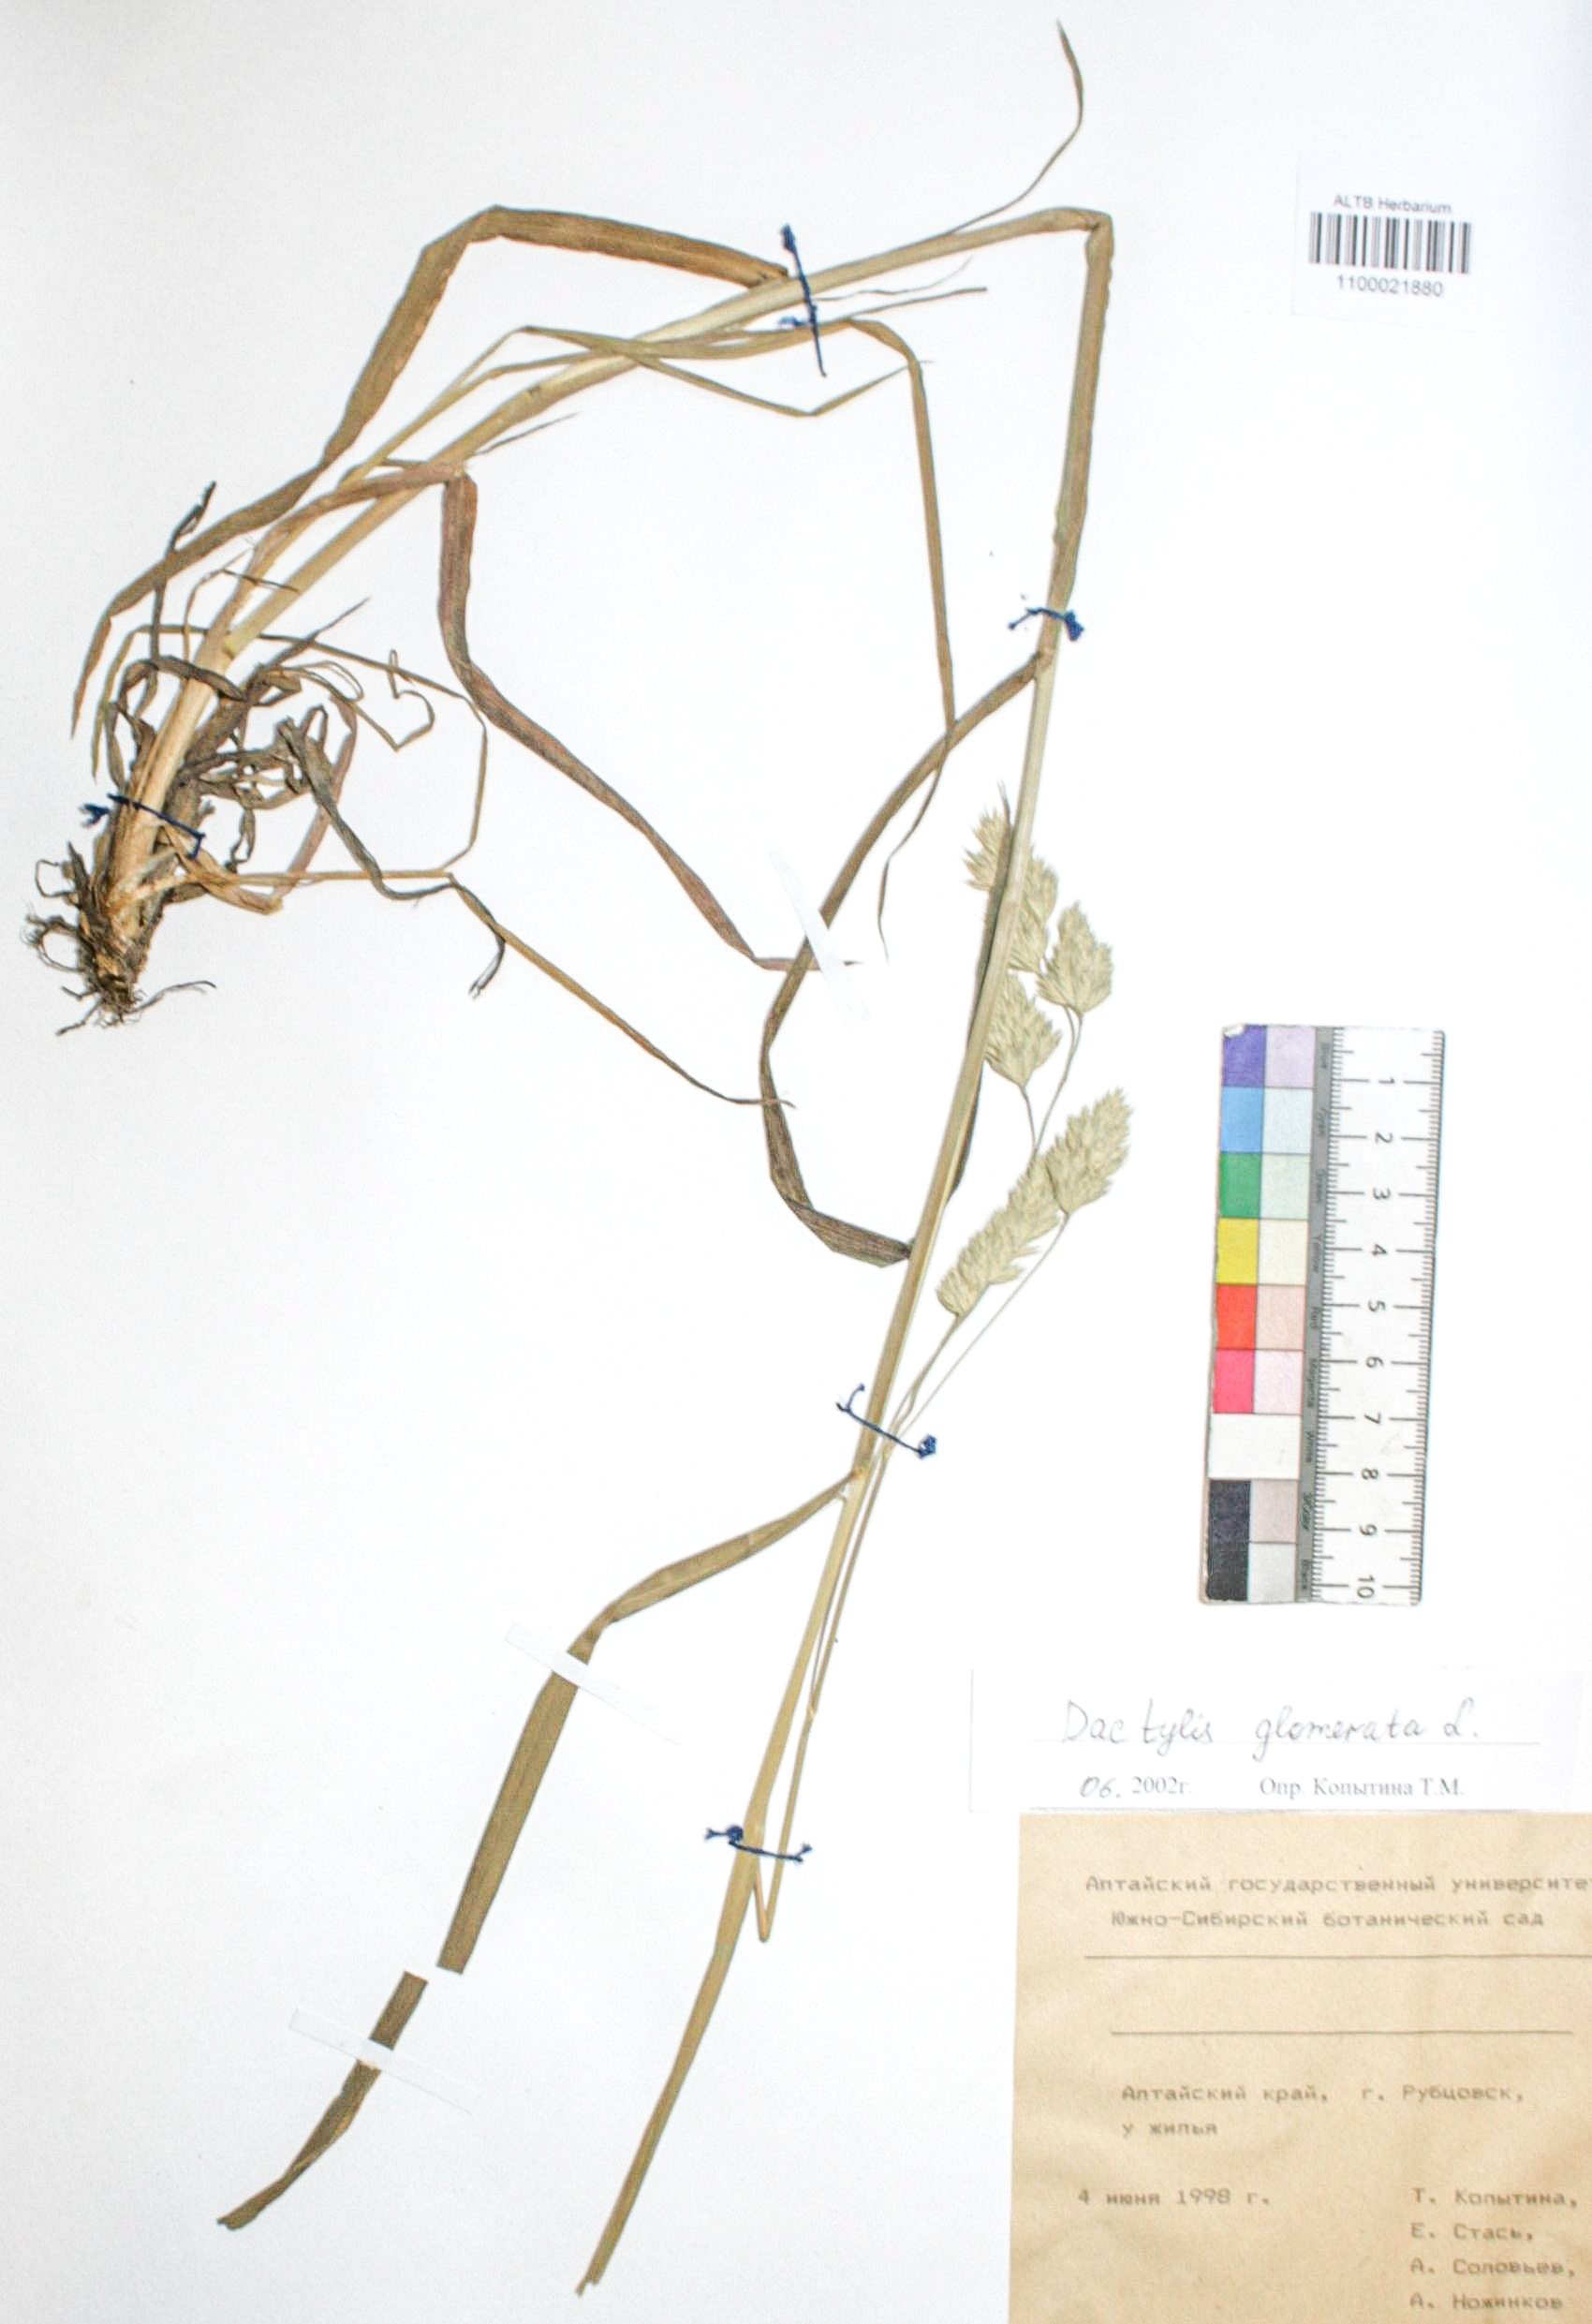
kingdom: Plantae
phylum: Tracheophyta
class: Liliopsida
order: Poales
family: Poaceae
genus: Dactylis
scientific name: Dactylis glomerata
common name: Orchardgrass
